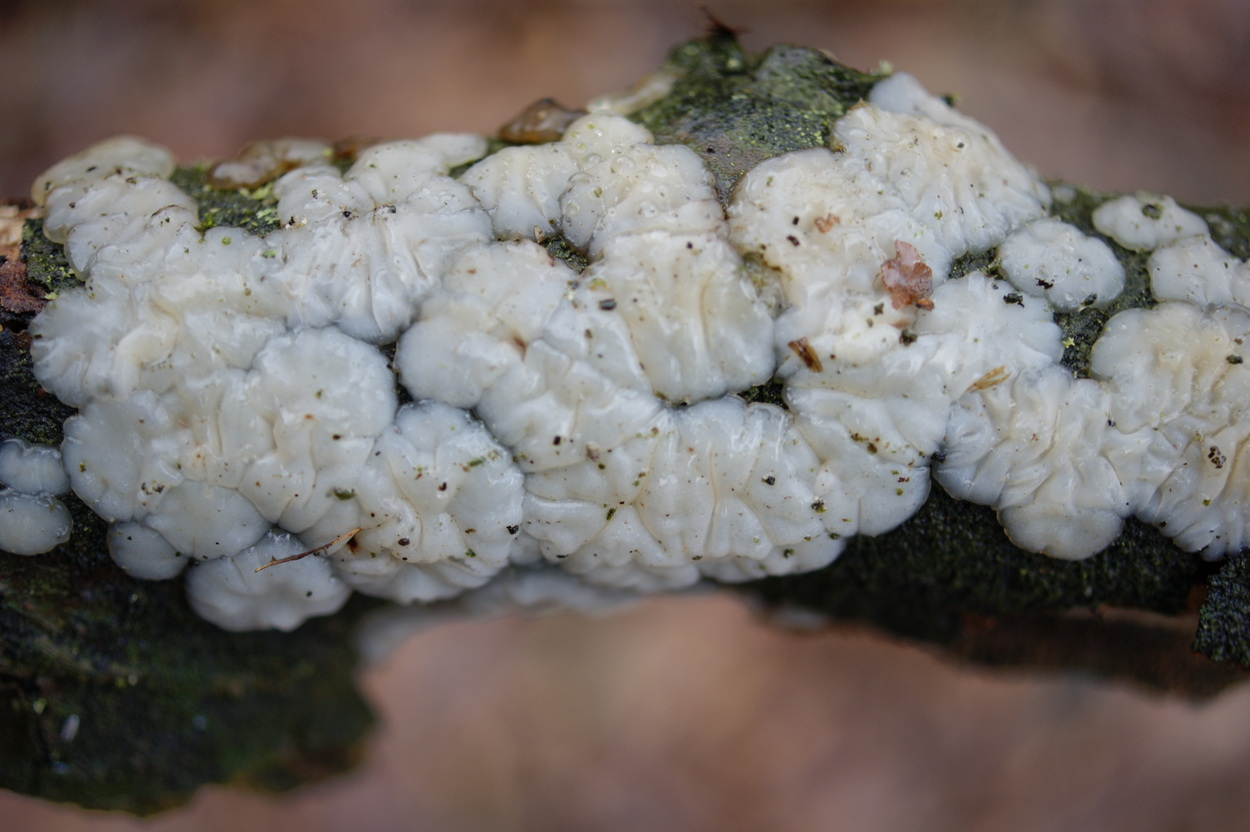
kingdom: Fungi
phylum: Basidiomycota
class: Agaricomycetes
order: Auriculariales
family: Auriculariaceae
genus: Exidia
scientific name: Exidia thuretiana
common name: hvidlig bævretop
